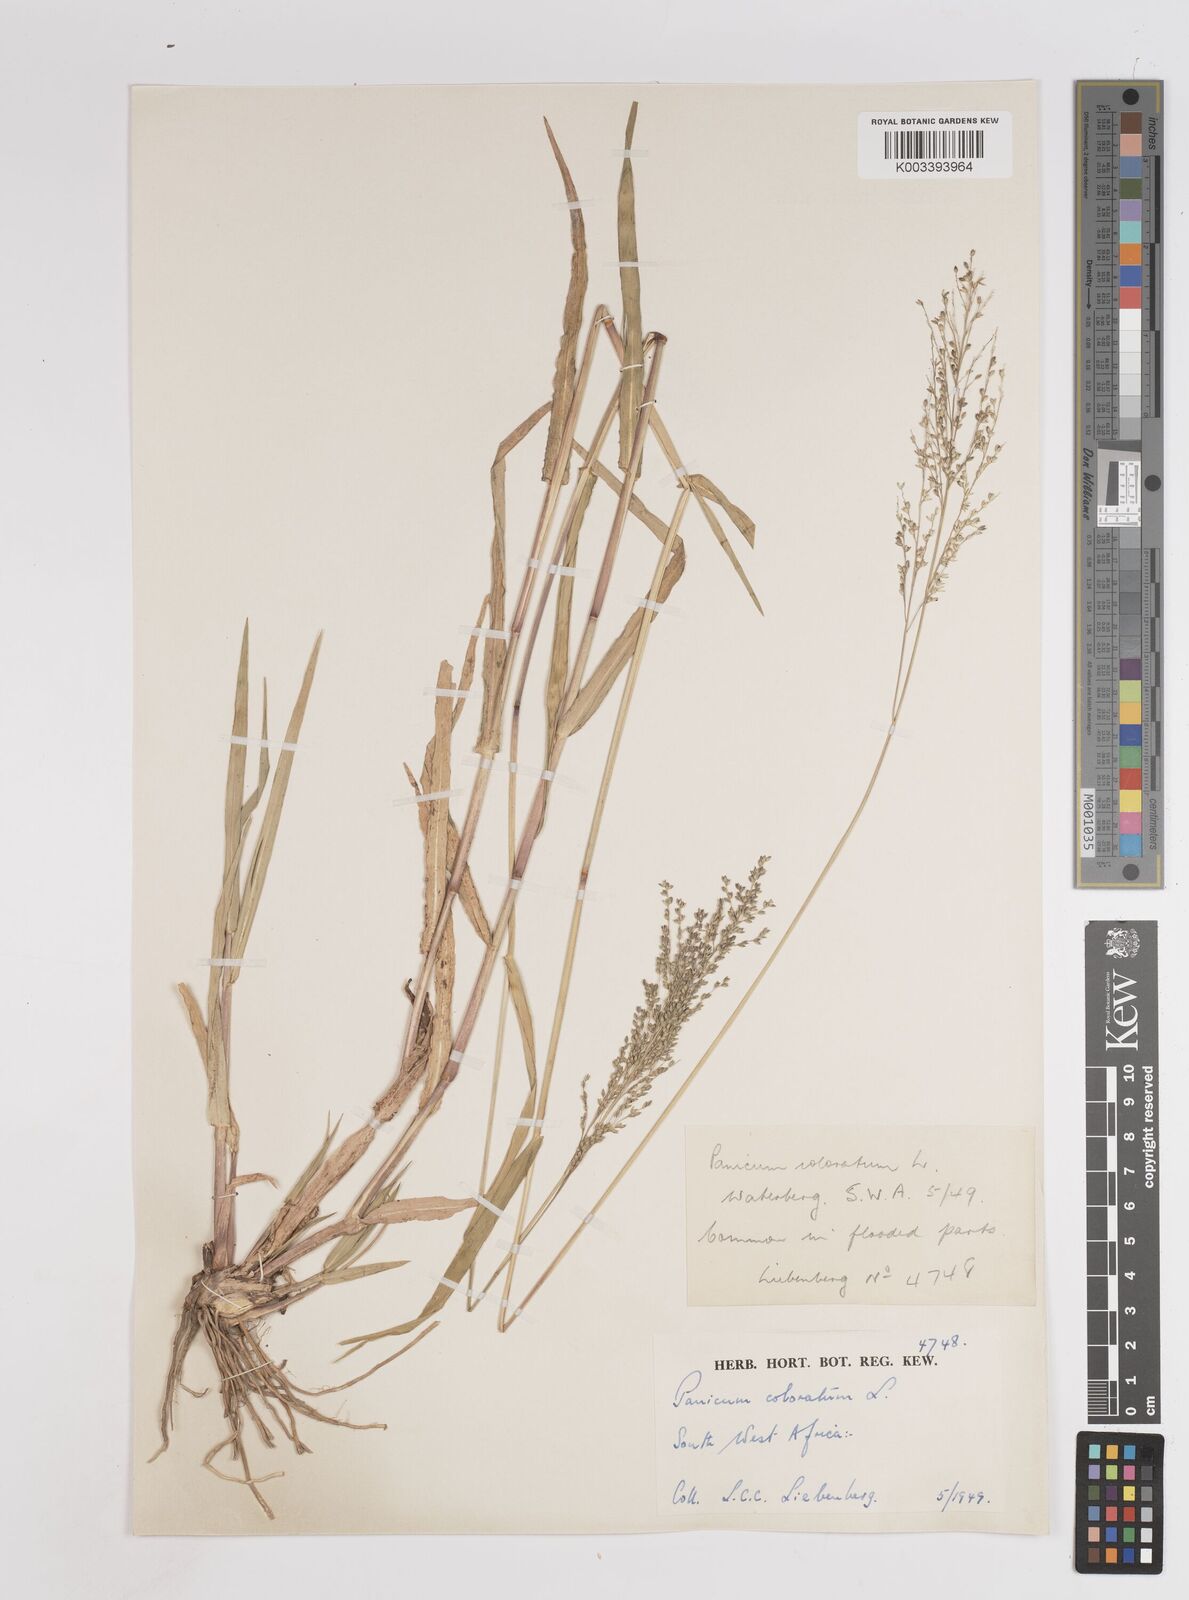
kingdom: Plantae
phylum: Tracheophyta
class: Liliopsida
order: Poales
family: Poaceae
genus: Panicum
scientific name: Panicum coloratum
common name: Kleingrass
